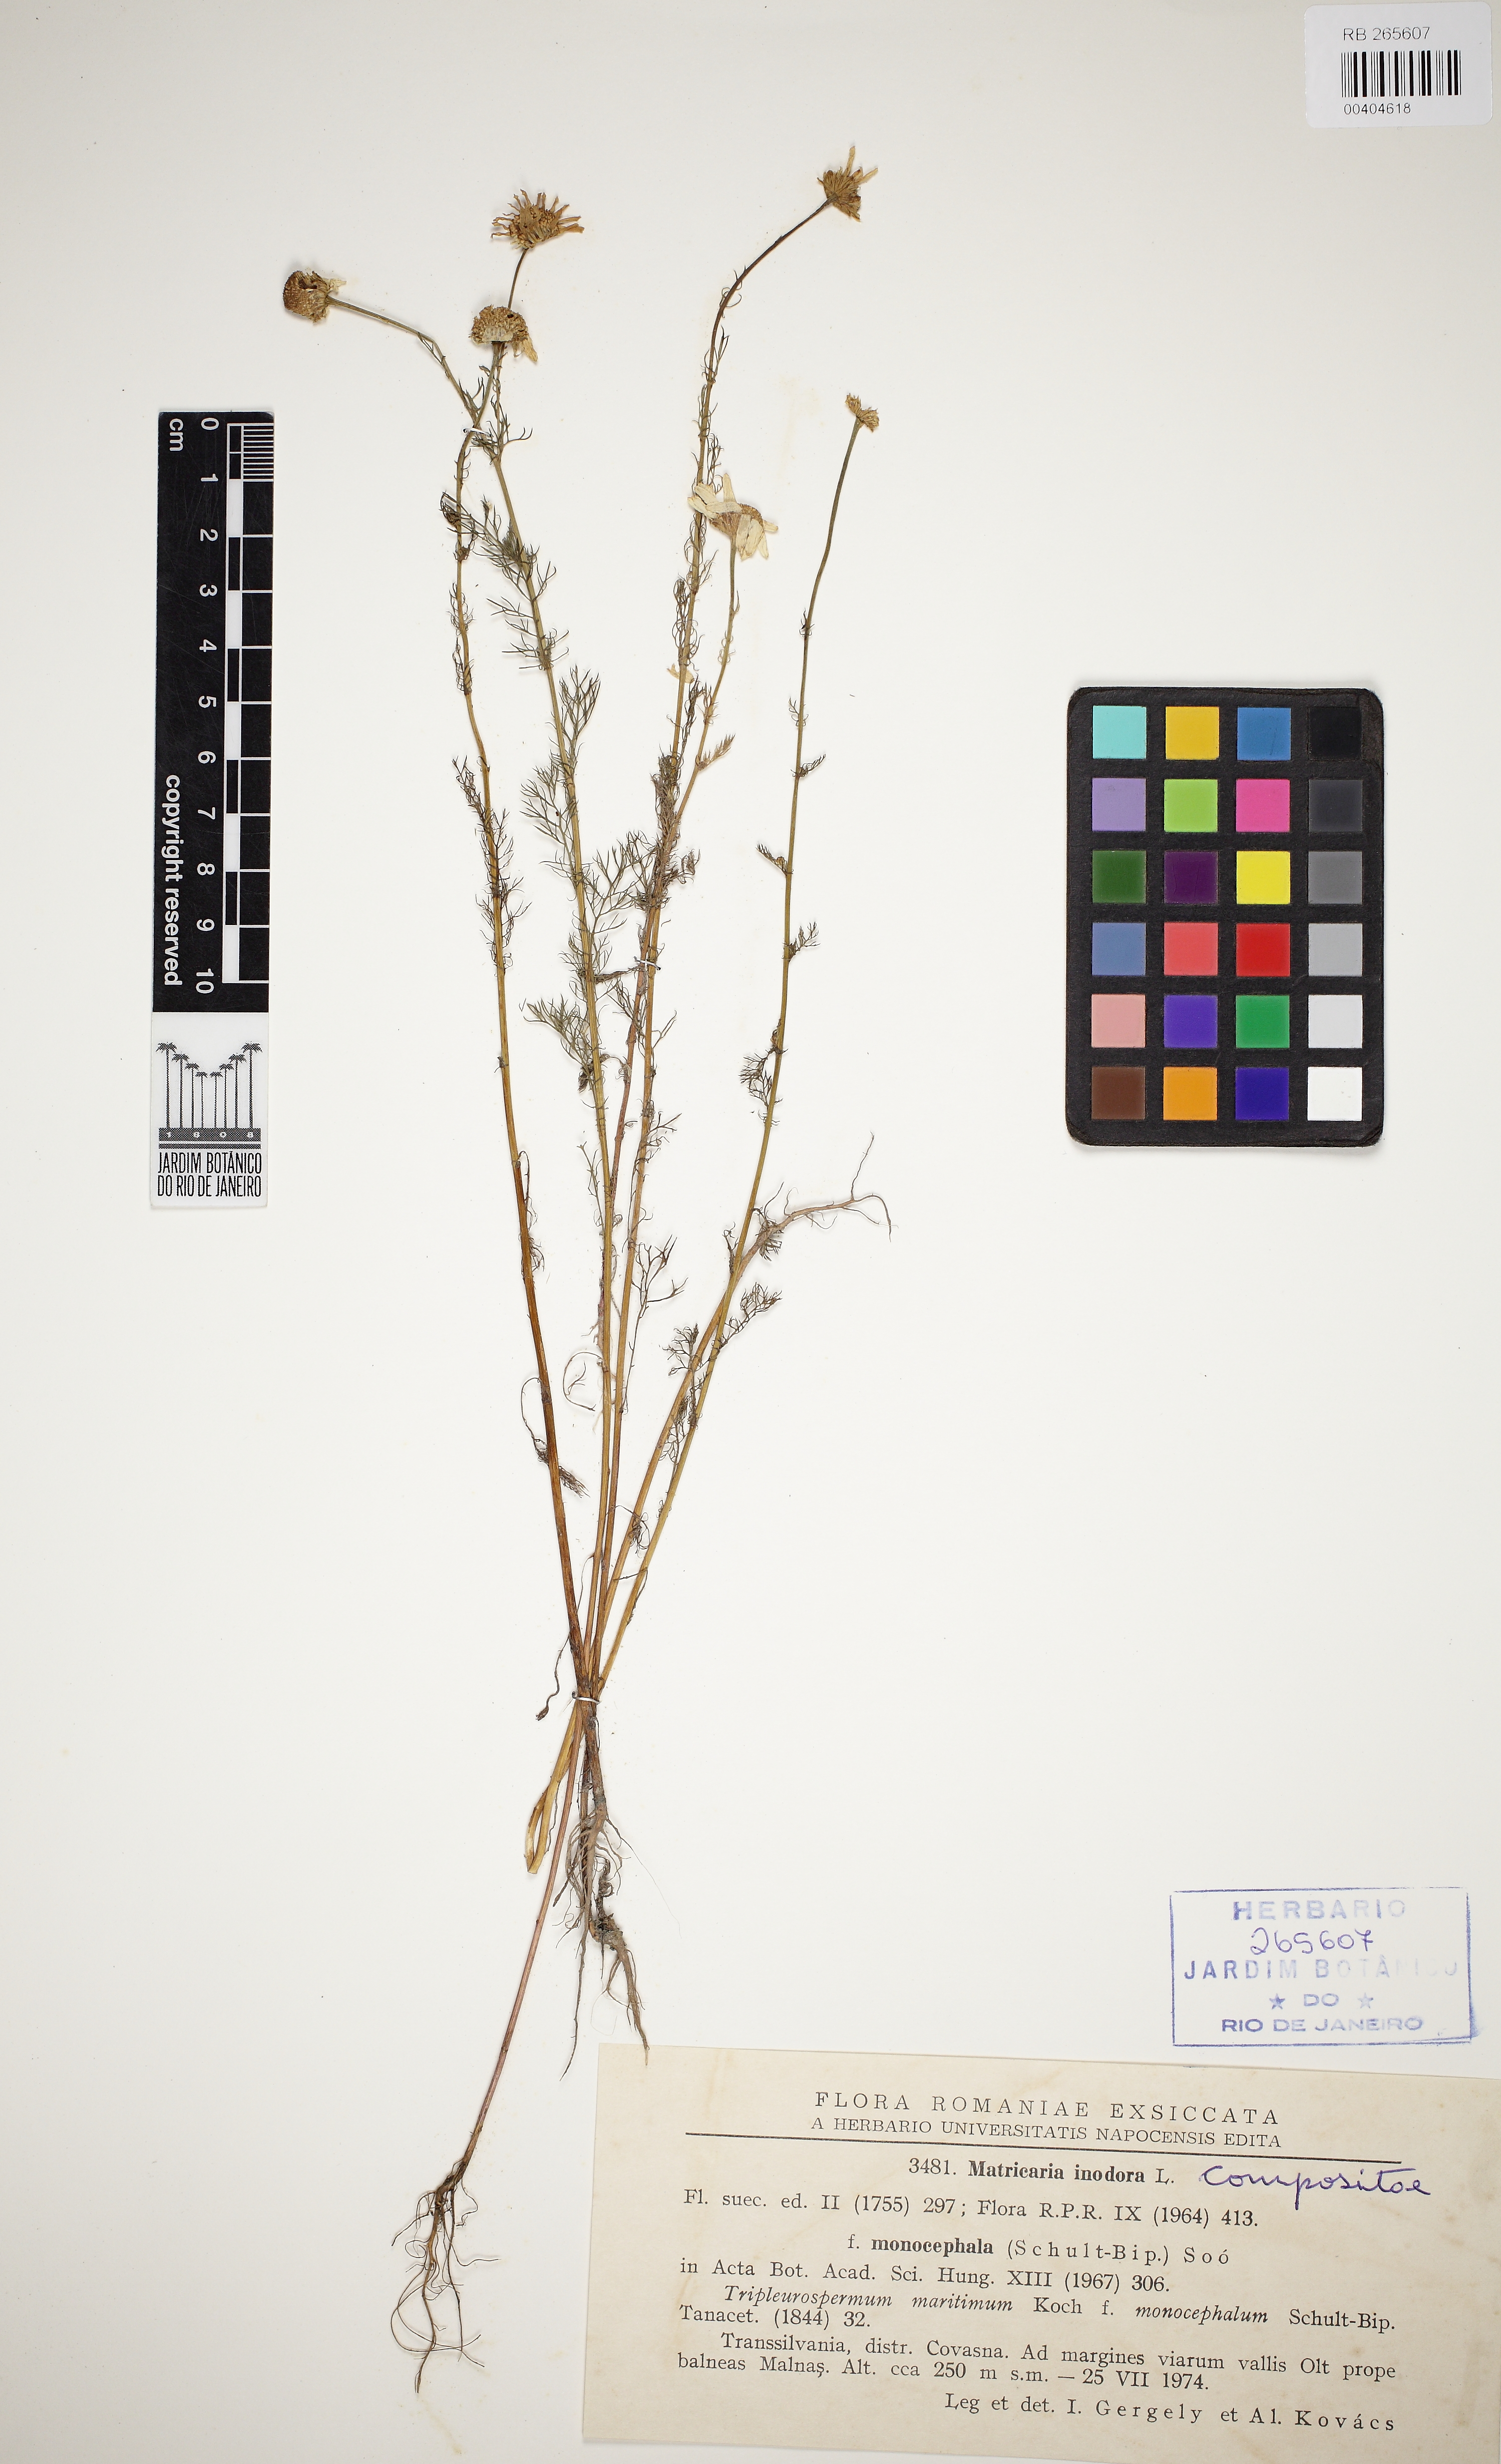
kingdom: Plantae
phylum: Tracheophyta
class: Magnoliopsida
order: Asterales
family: Asteraceae
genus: Tripleurospermum
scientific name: Tripleurospermum inodorum
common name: Scentless mayweed
